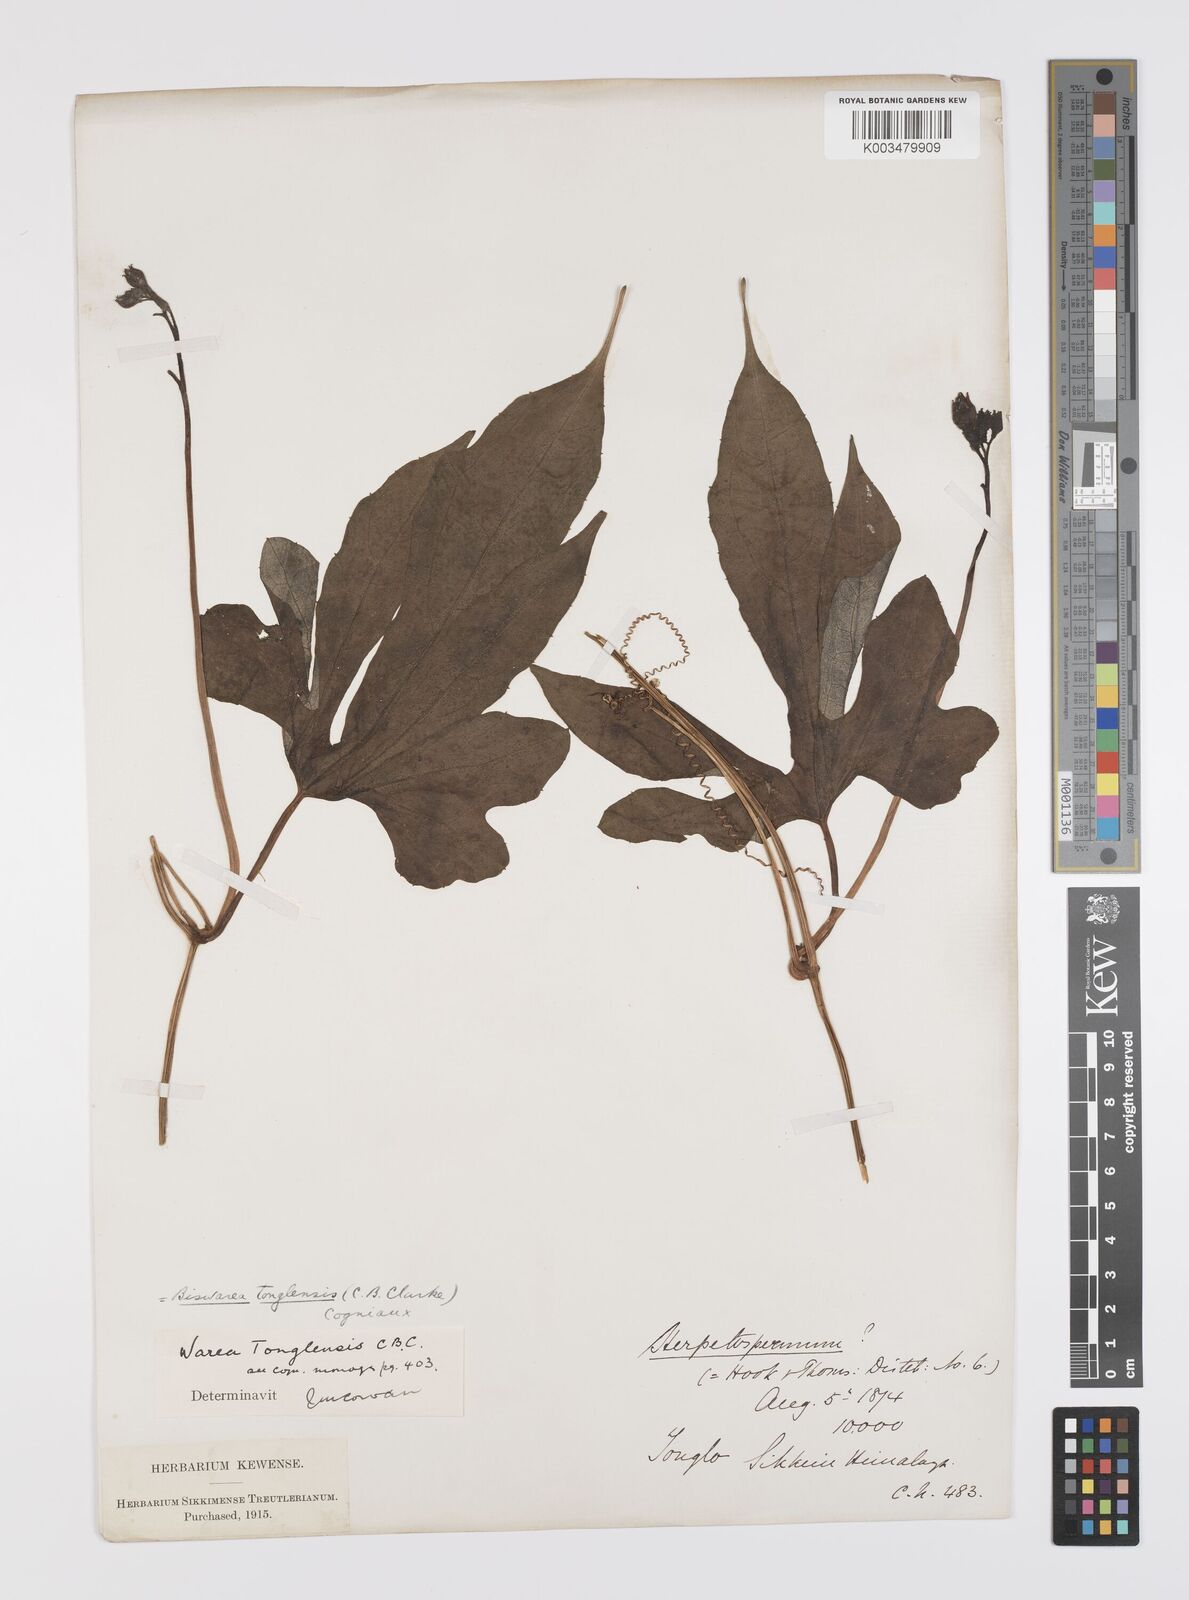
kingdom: Plantae
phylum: Tracheophyta
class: Magnoliopsida
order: Cucurbitales
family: Cucurbitaceae
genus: Benincasa
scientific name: Benincasa
